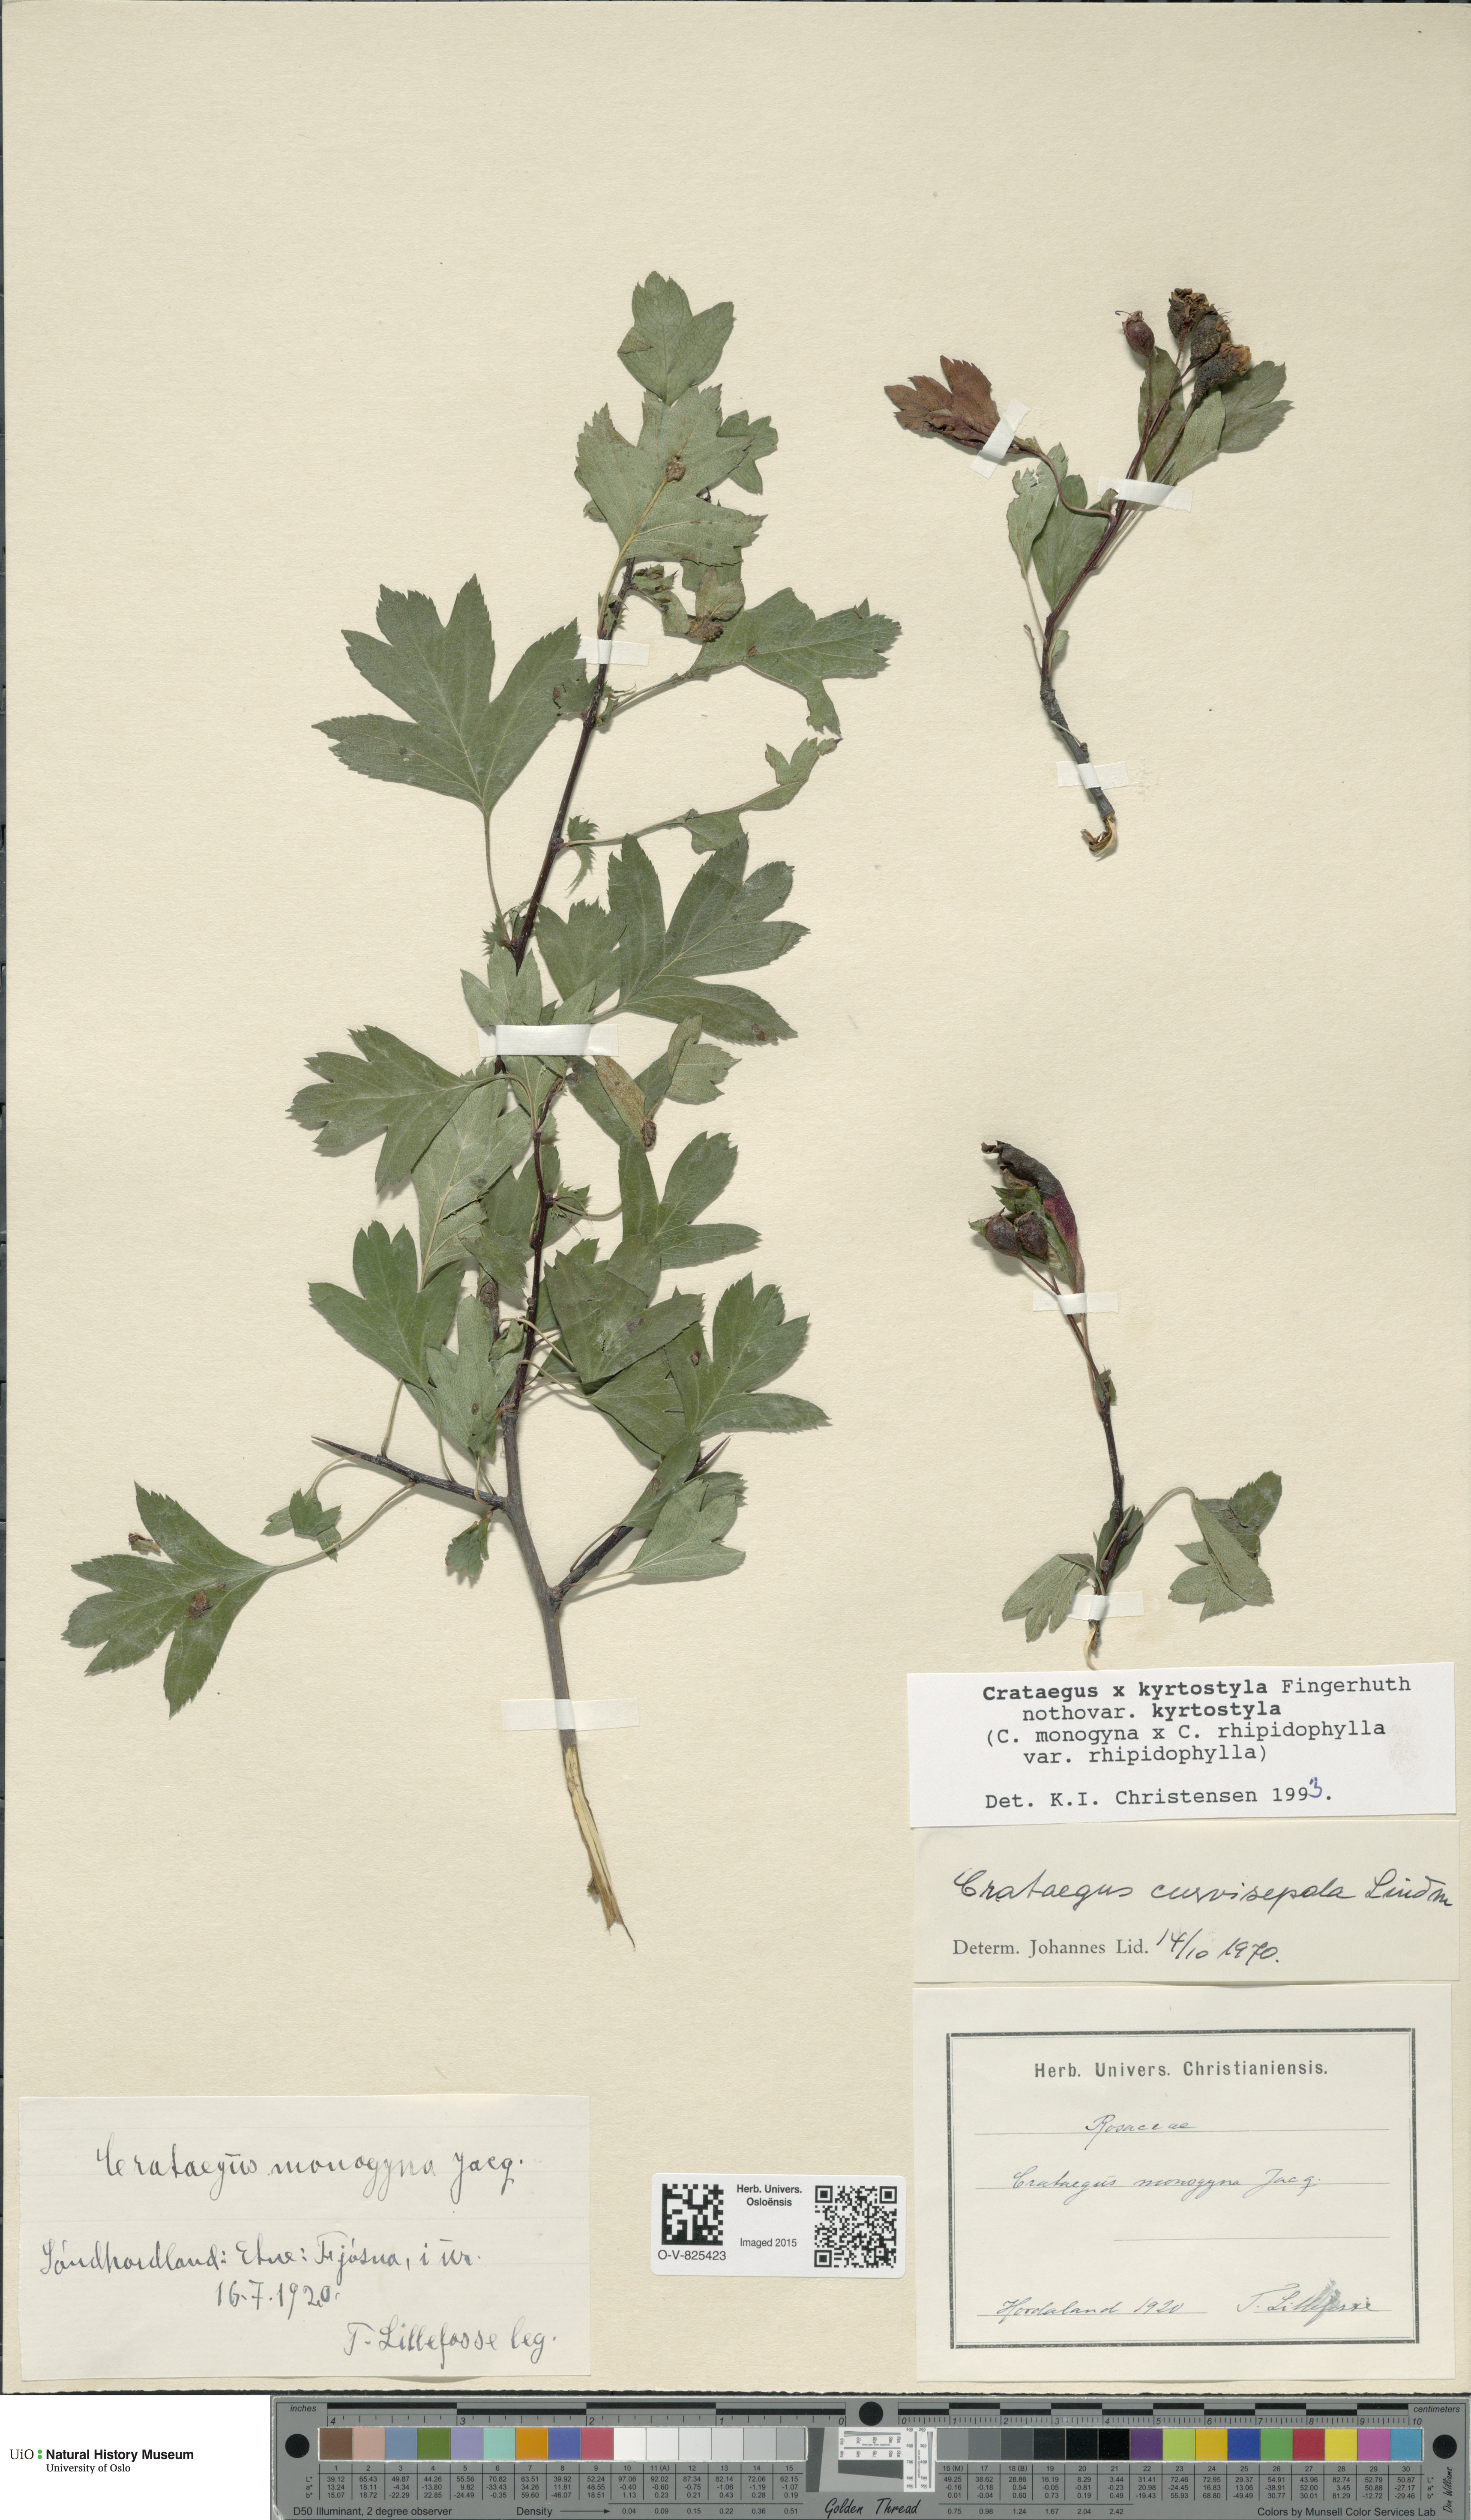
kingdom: Plantae
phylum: Tracheophyta
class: Magnoliopsida
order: Rosales
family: Rosaceae
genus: Crataegus
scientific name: Crataegus kyrtostyla
